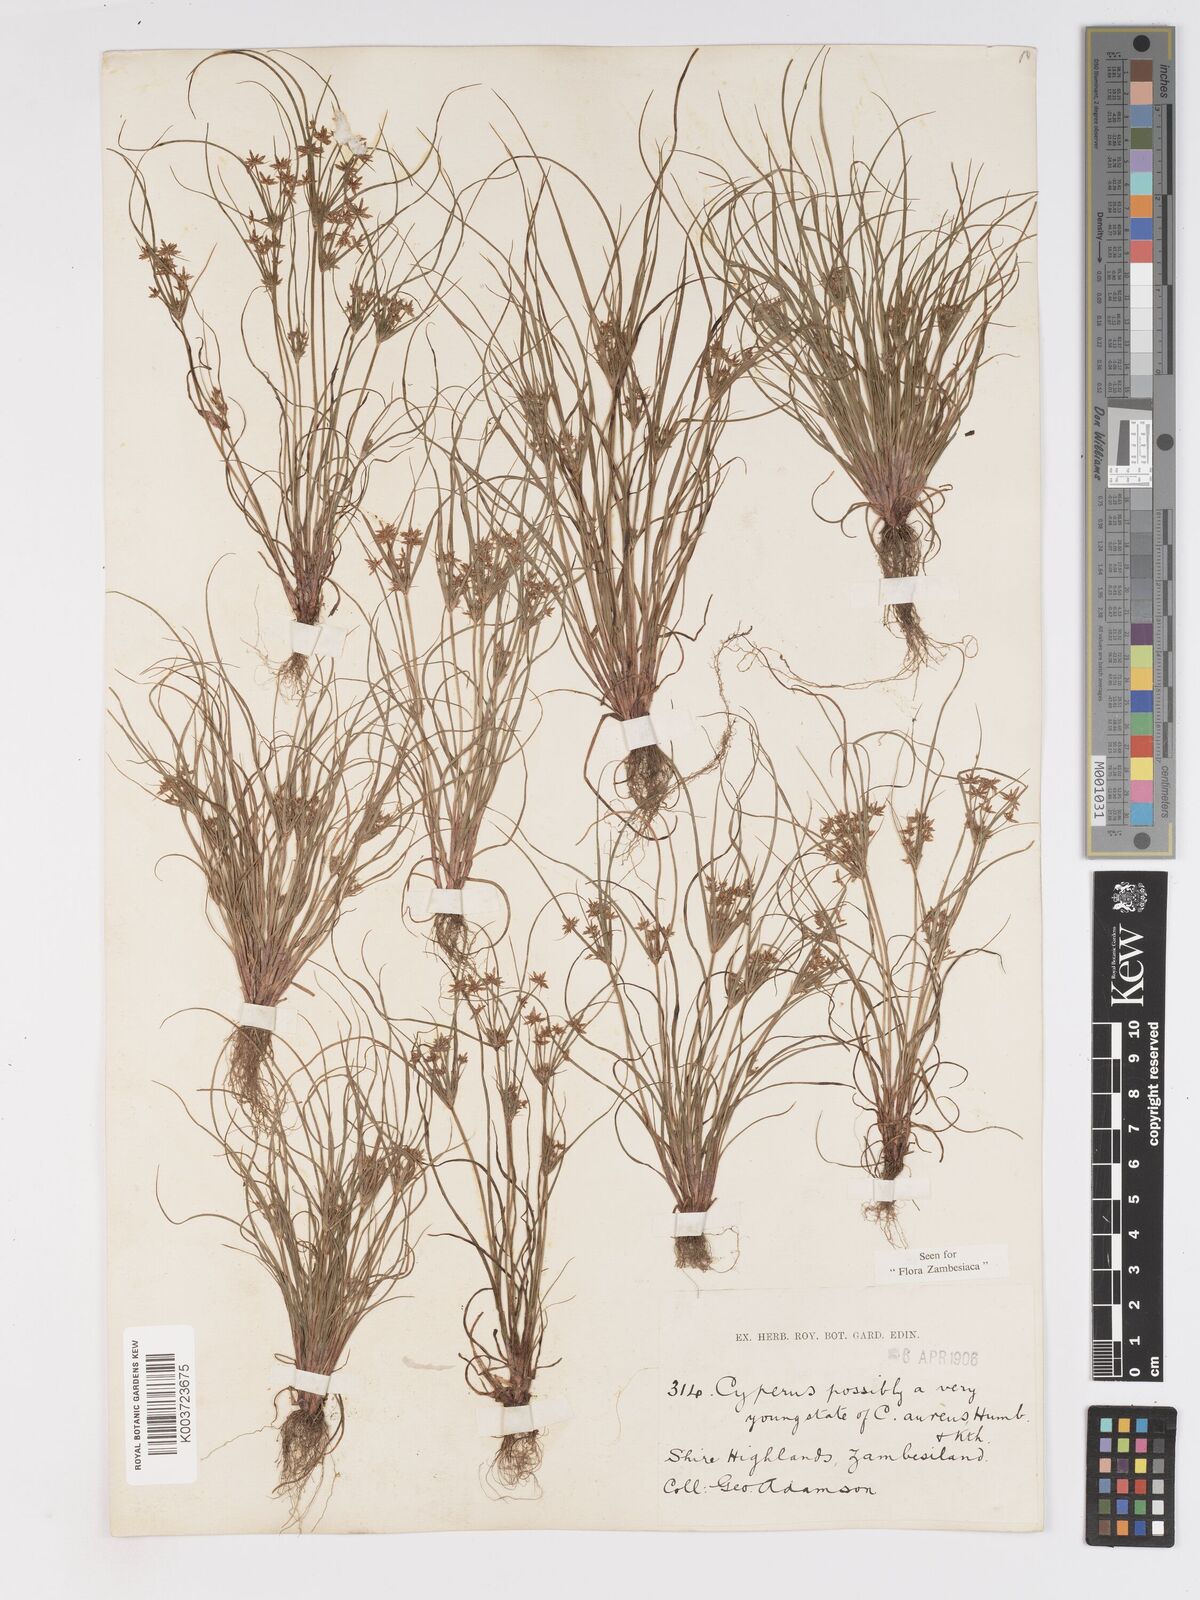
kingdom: Plantae
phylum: Tracheophyta
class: Liliopsida
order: Poales
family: Cyperaceae
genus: Cyperus
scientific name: Cyperus amabilis
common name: Foothill flat sedge
